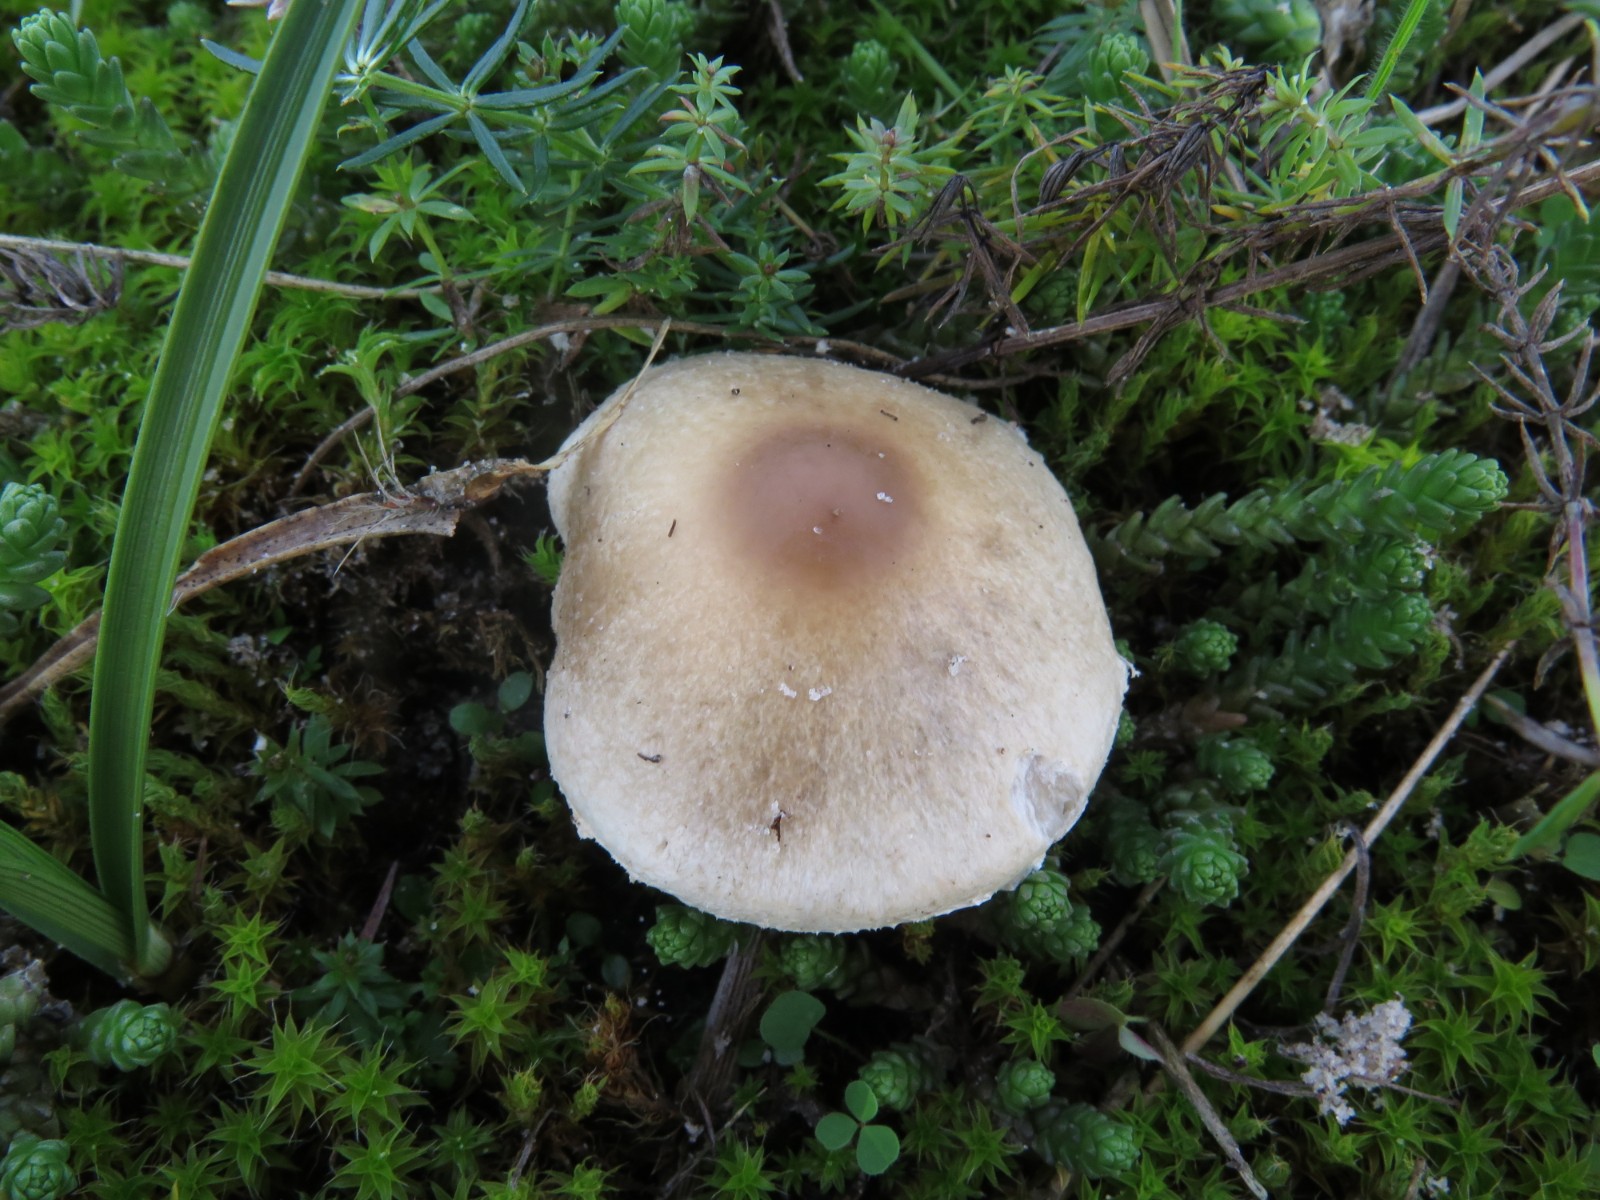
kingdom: Fungi
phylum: Basidiomycota
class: Agaricomycetes
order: Agaricales
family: Agaricaceae
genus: Lepiota
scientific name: Lepiota erminea
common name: hvid parasolhat
